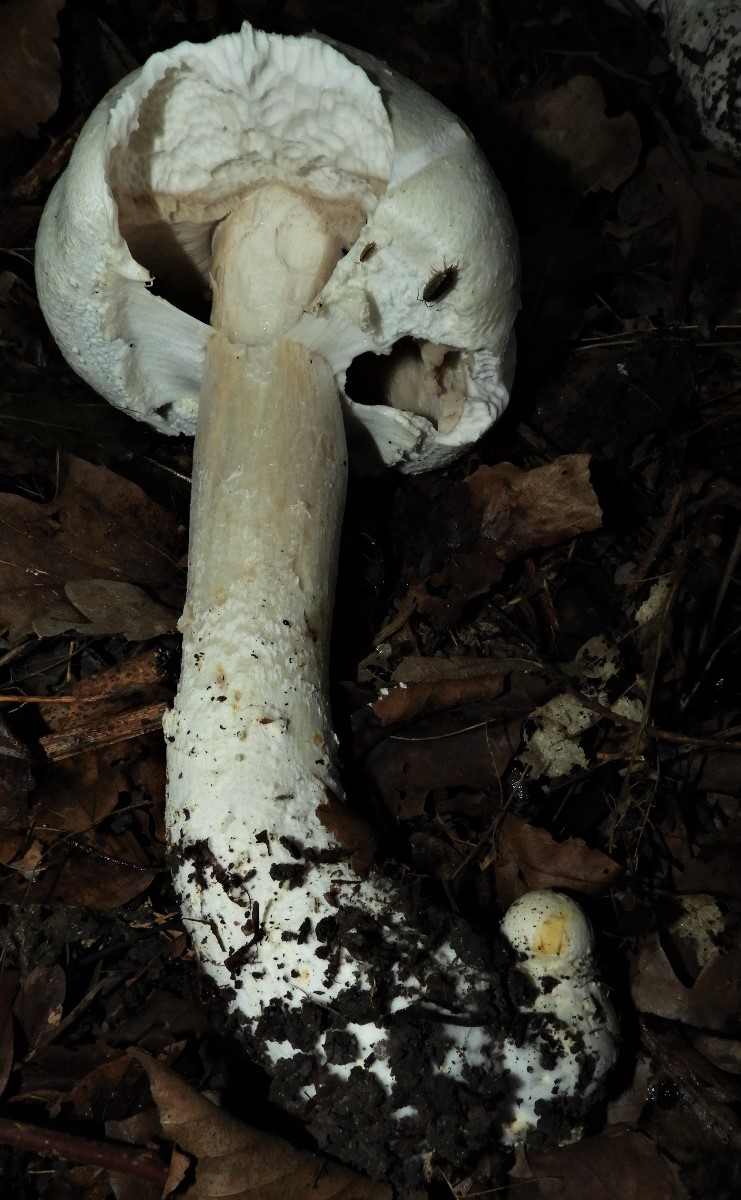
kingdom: Fungi
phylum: Basidiomycota
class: Agaricomycetes
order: Agaricales
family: Agaricaceae
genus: Agaricus
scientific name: Agaricus
